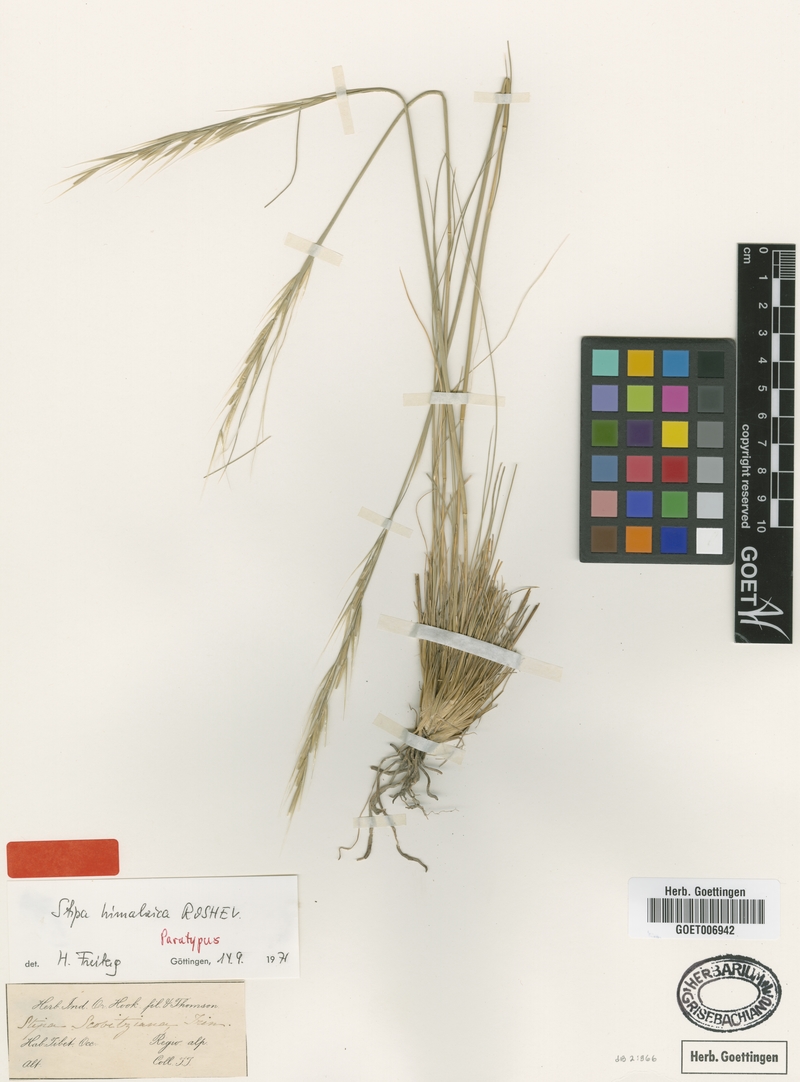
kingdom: Plantae
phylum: Tracheophyta
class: Liliopsida
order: Poales
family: Poaceae
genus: Stipa
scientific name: Stipa himalaica
